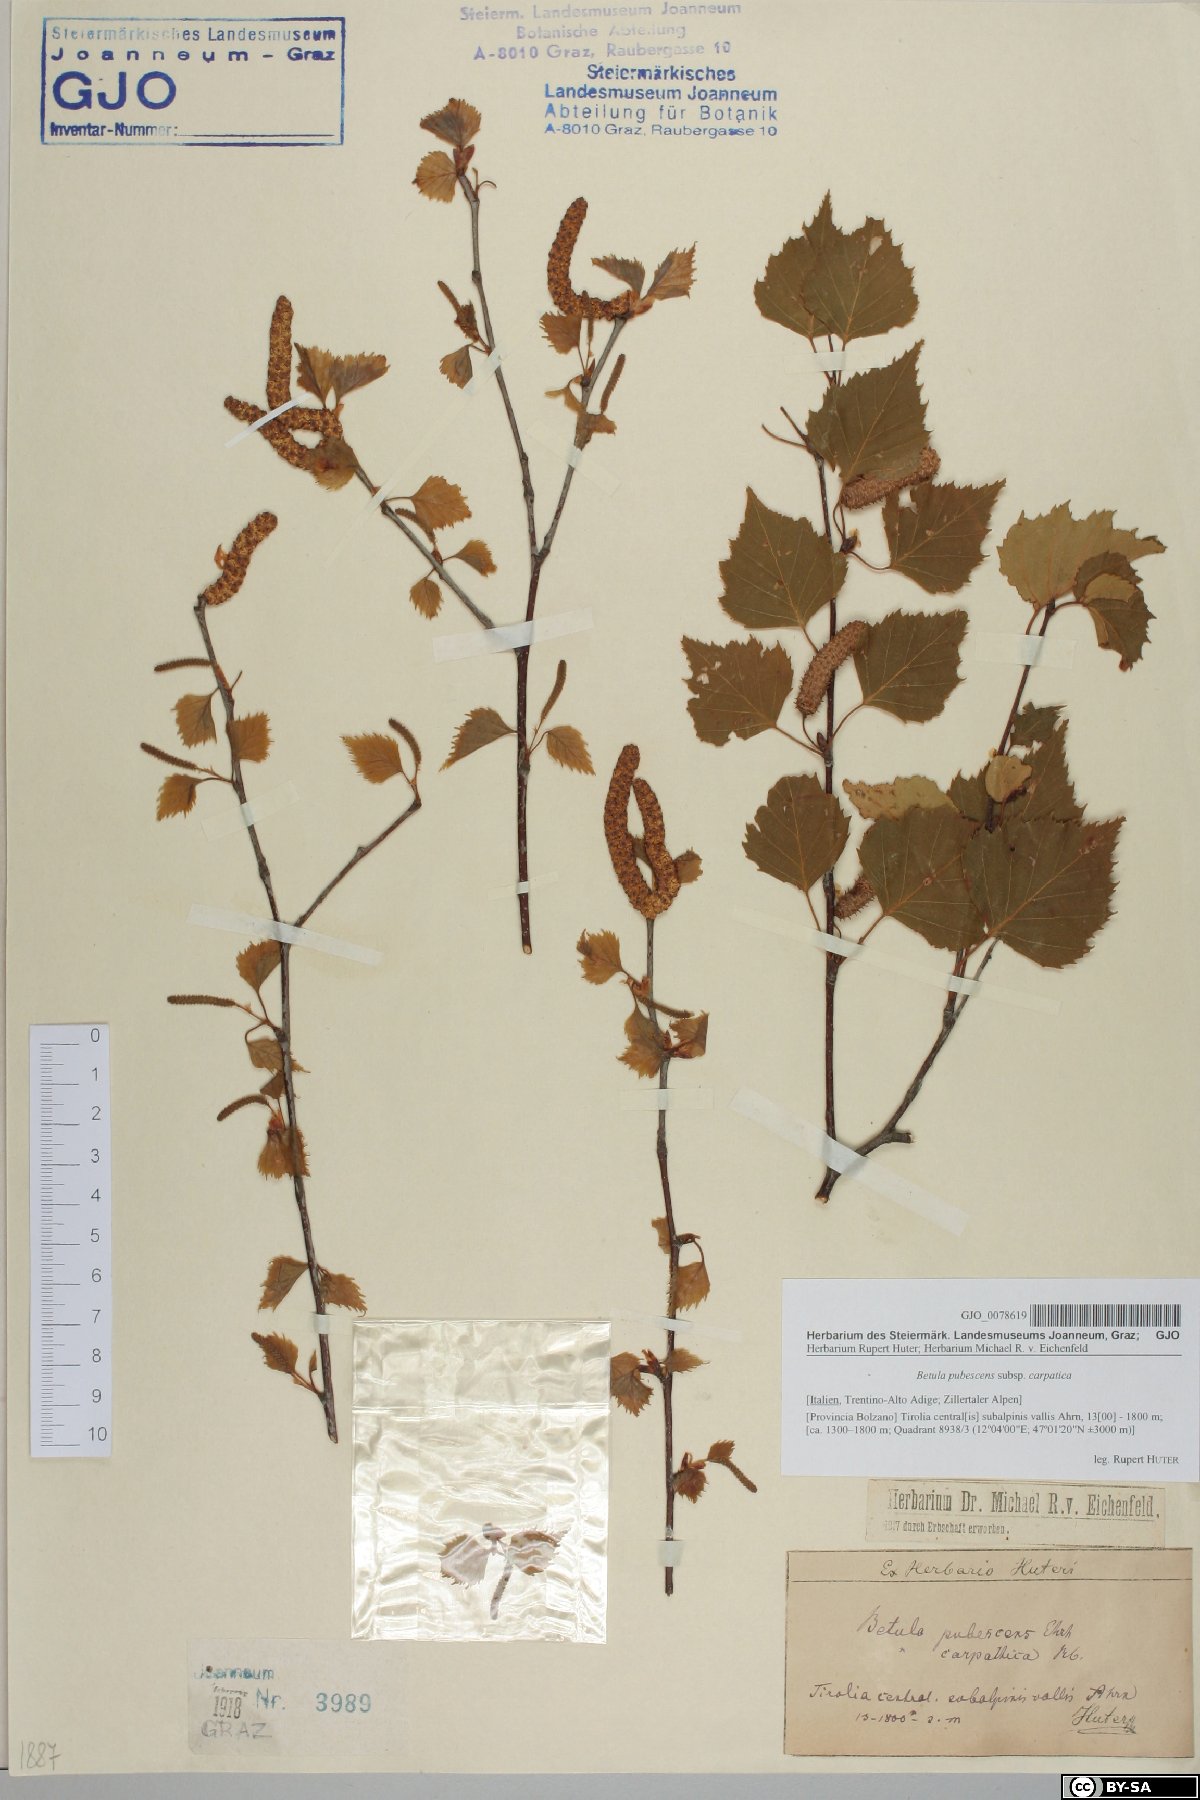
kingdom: Plantae
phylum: Tracheophyta
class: Magnoliopsida
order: Fagales
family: Betulaceae
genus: Betula
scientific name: Betula pubescens
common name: Downy birch
